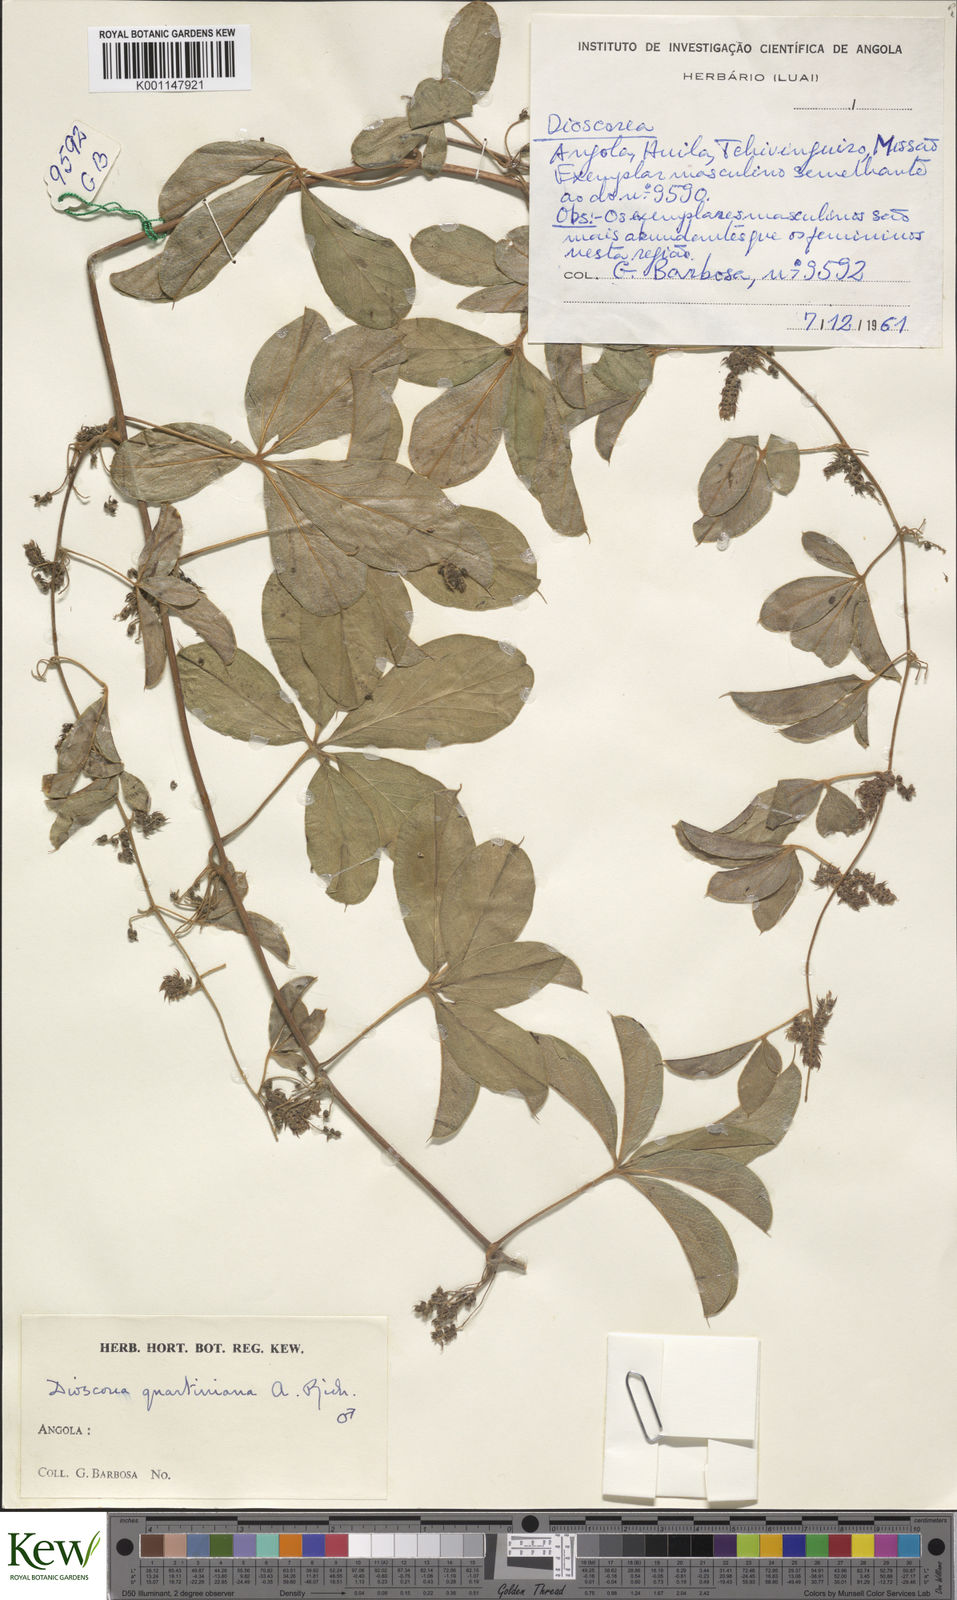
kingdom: Plantae
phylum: Tracheophyta
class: Liliopsida
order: Dioscoreales
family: Dioscoreaceae
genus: Dioscorea
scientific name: Dioscorea quartiniana
